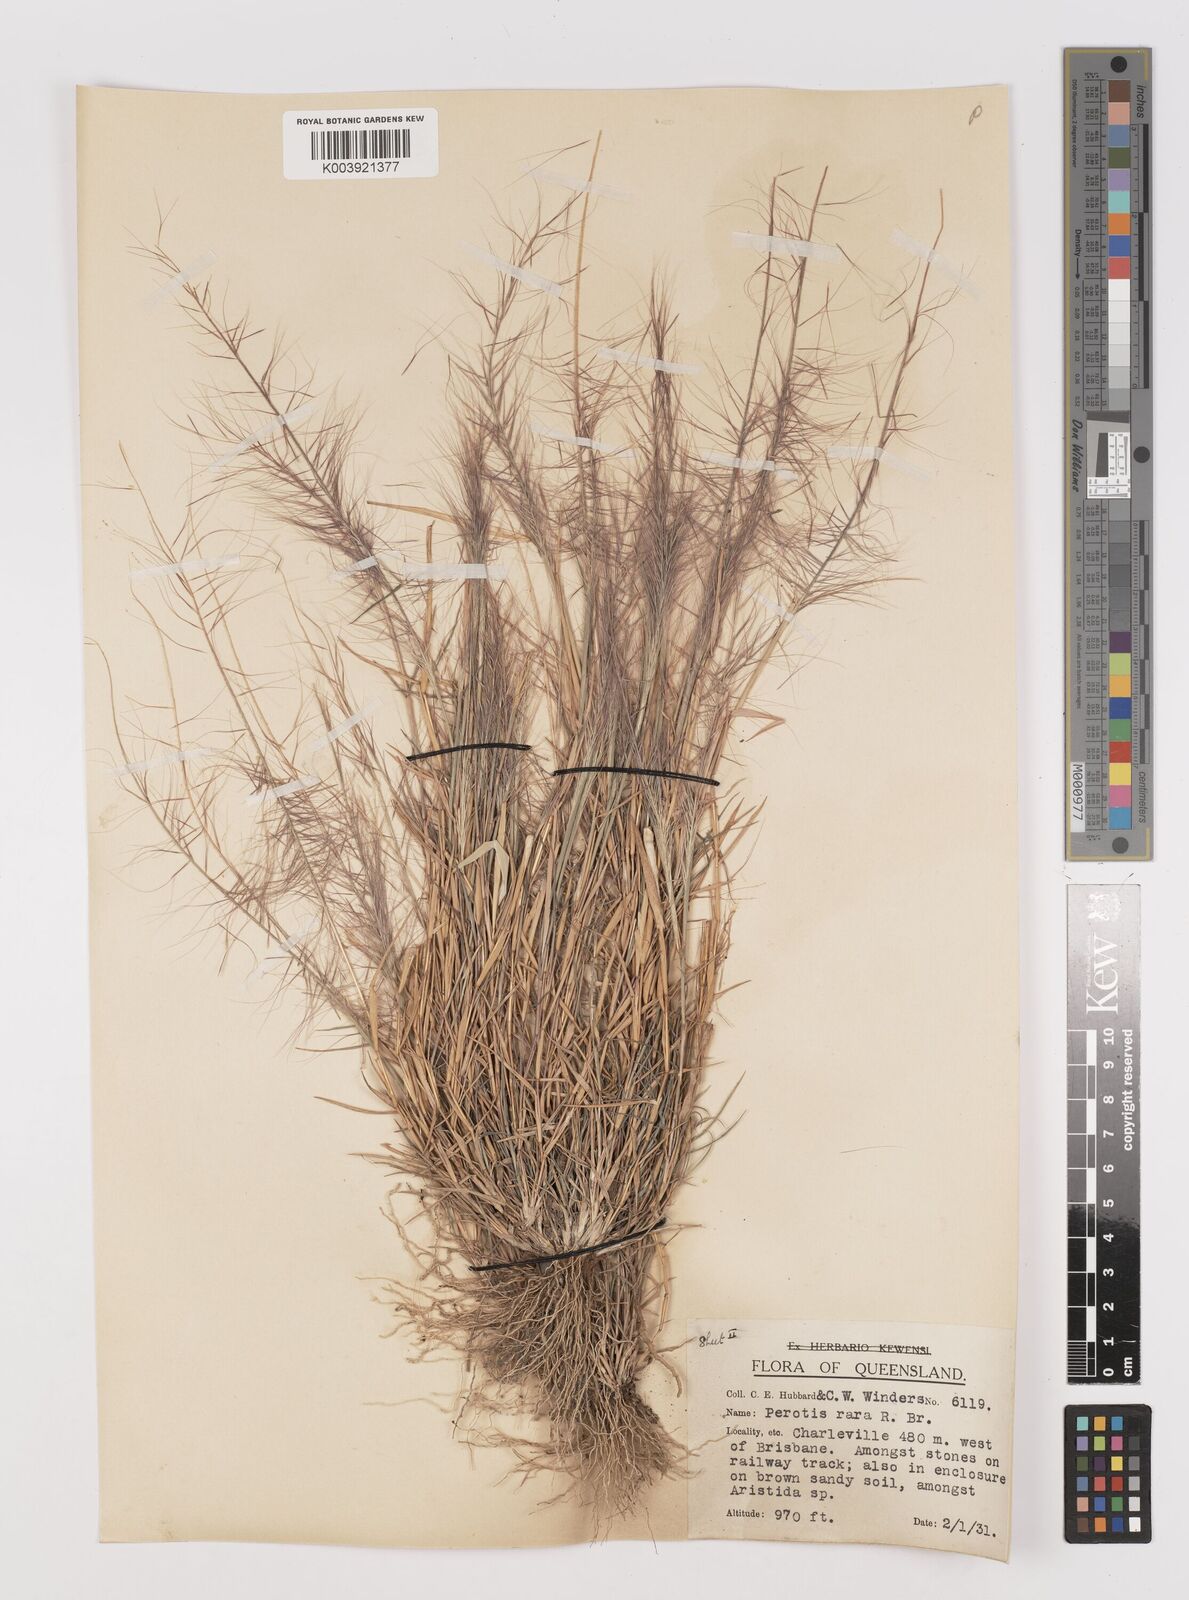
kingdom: Plantae
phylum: Tracheophyta
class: Liliopsida
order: Poales
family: Poaceae
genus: Perotis
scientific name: Perotis rara
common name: Comet grass
